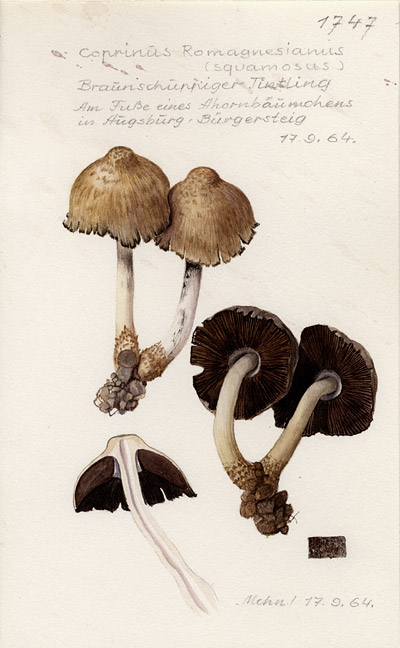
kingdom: Fungi
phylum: Basidiomycota
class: Agaricomycetes
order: Agaricales
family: Psathyrellaceae
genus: Coprinopsis
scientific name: Coprinopsis romagnesiana
